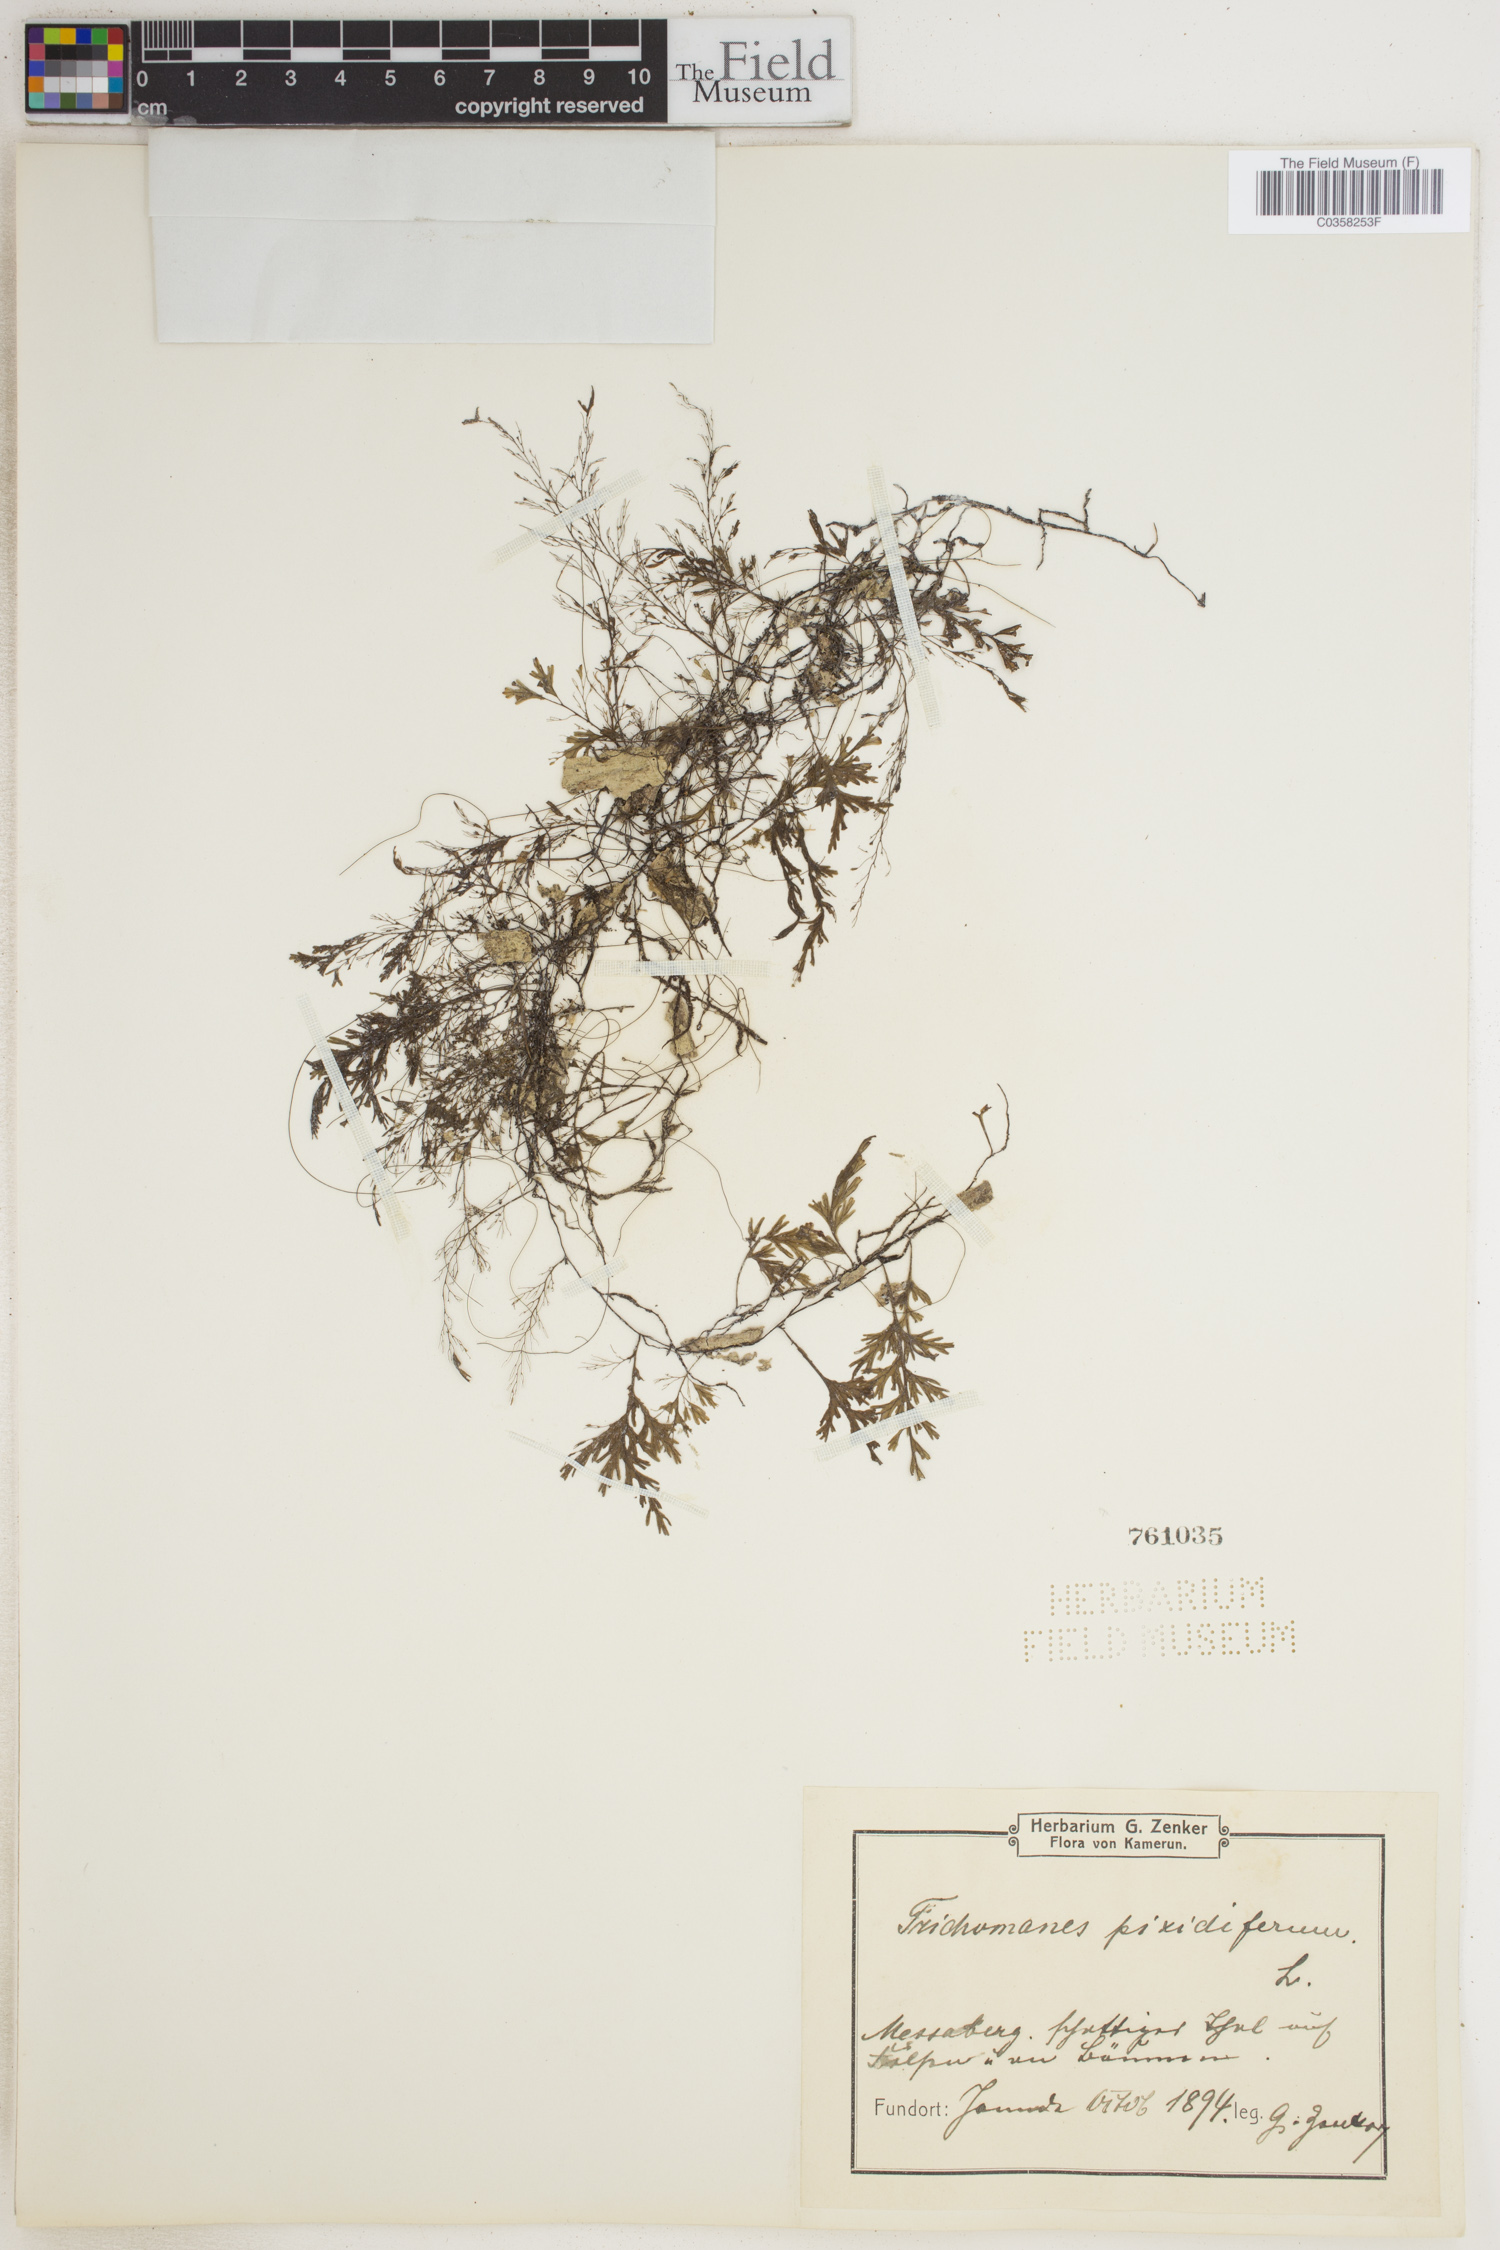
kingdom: Plantae
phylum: Tracheophyta
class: Polypodiopsida
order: Hymenophyllales
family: Hymenophyllaceae
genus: Polyphlebium
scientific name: Polyphlebium pyxidiferum
